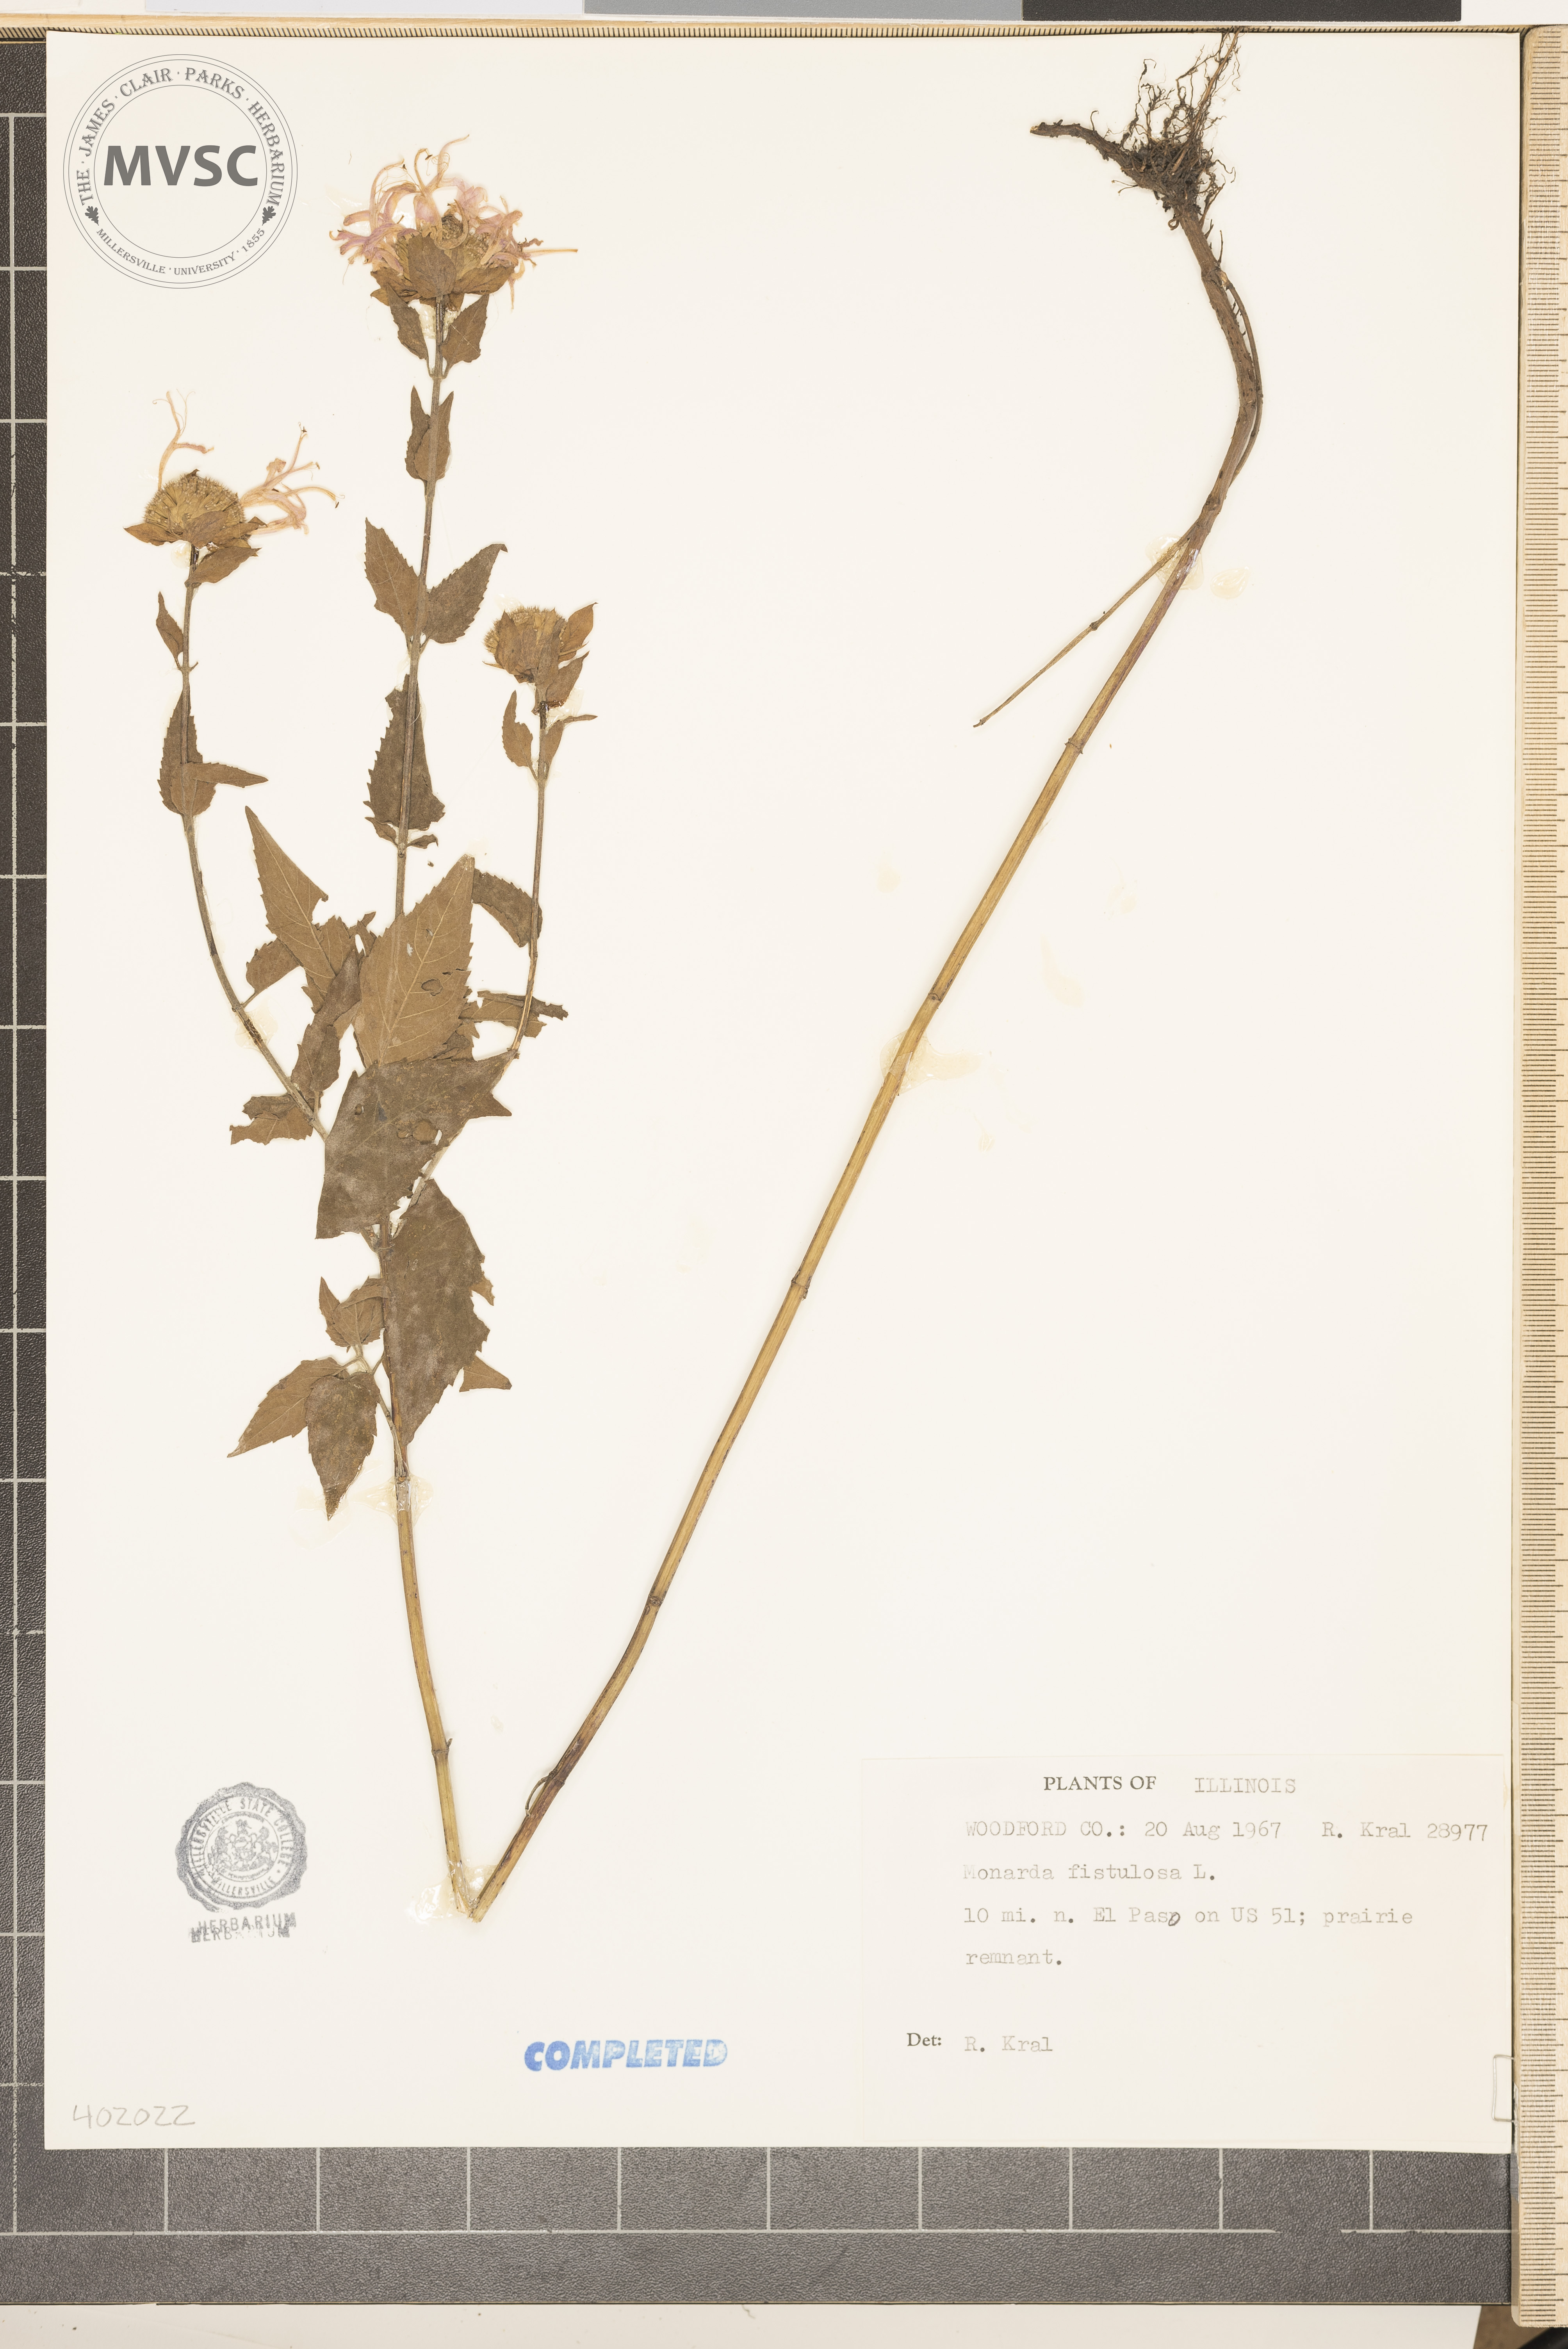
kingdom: Plantae
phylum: Tracheophyta
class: Magnoliopsida
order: Lamiales
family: Lamiaceae
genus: Monarda
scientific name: Monarda fistulosa
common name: Wild bergamot
